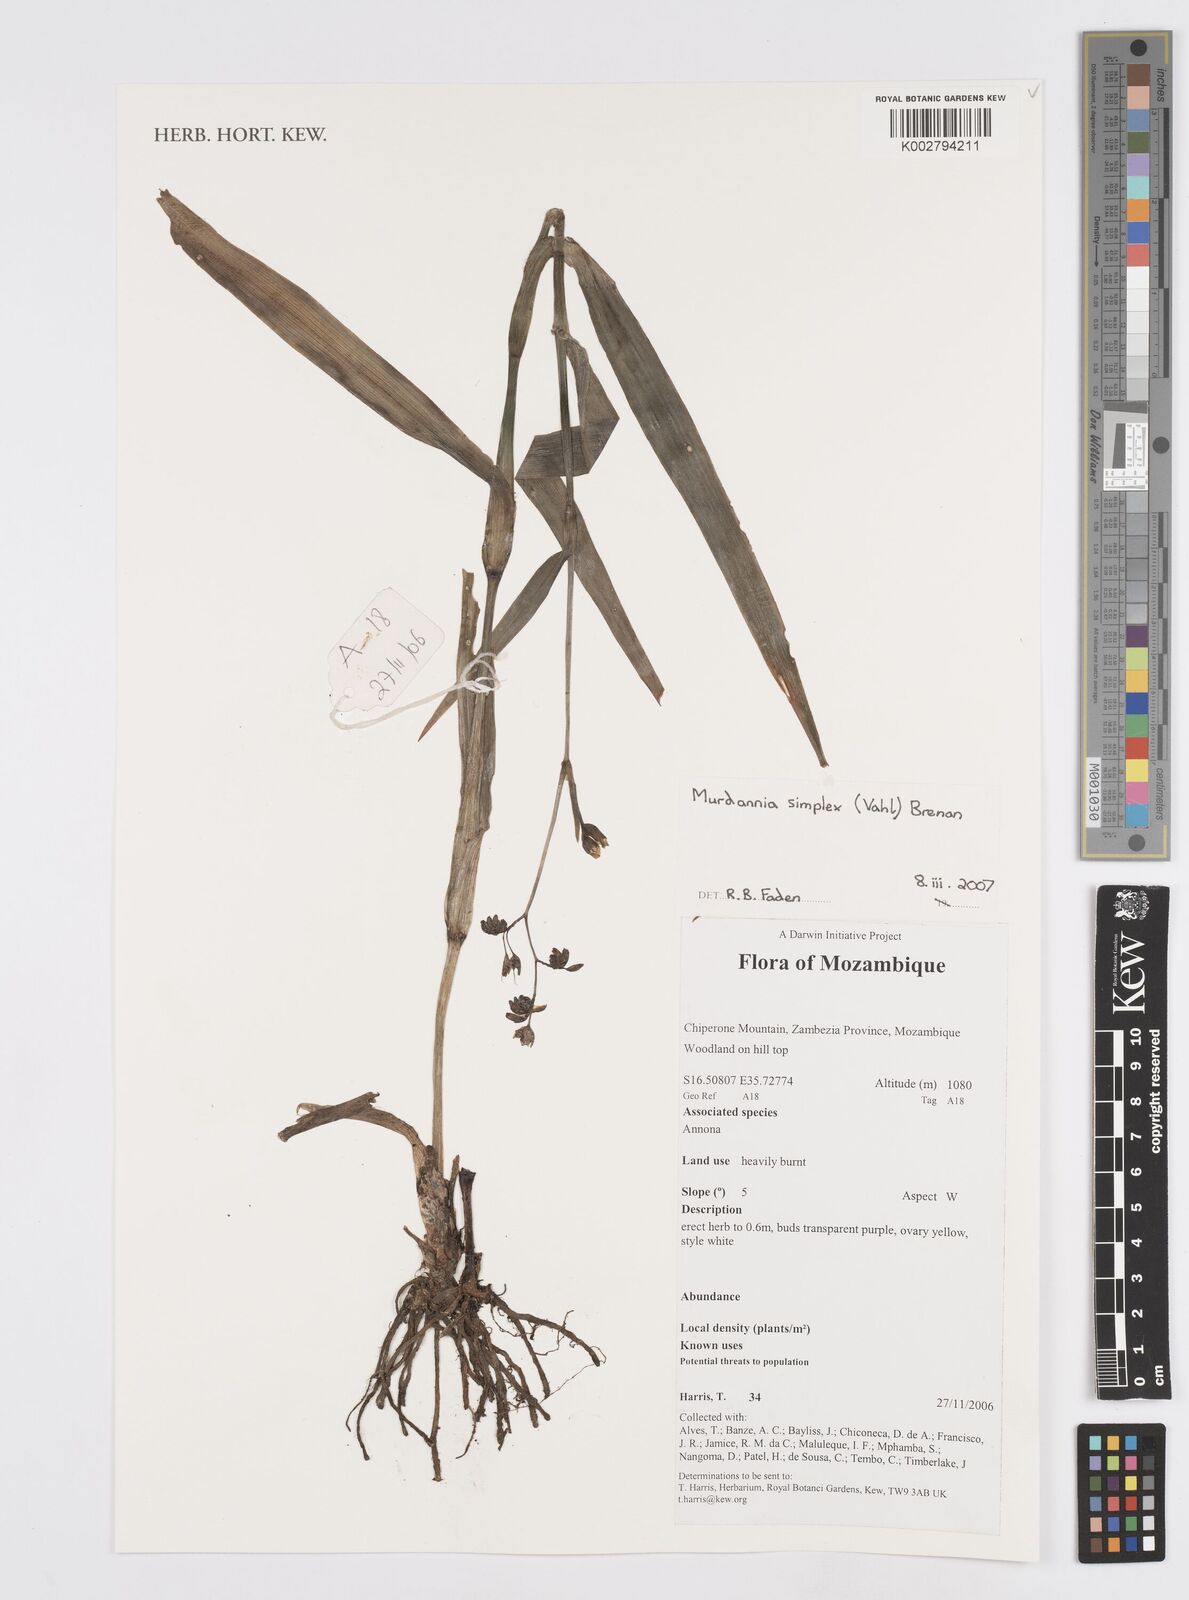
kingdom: Plantae
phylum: Tracheophyta
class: Liliopsida
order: Commelinales
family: Commelinaceae
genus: Murdannia
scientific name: Murdannia simplex
